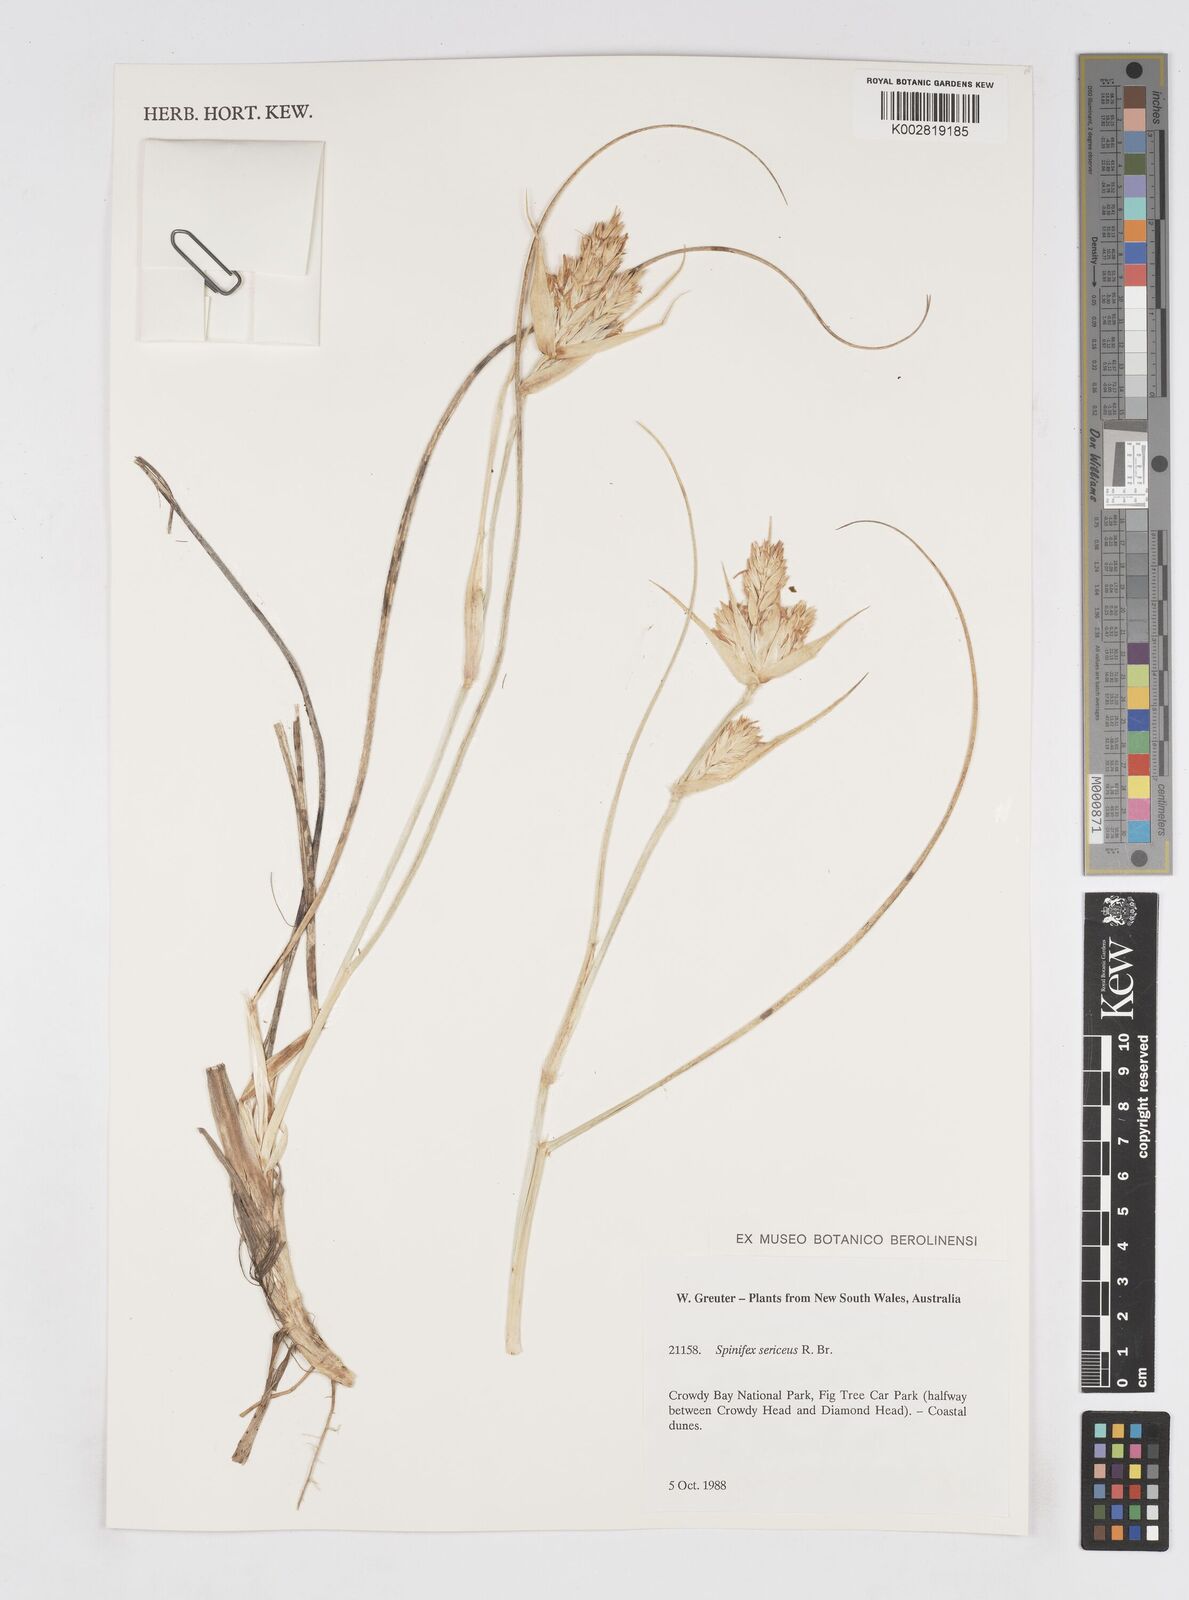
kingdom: Plantae
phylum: Tracheophyta
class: Liliopsida
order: Poales
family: Poaceae
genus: Spinifex
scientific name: Spinifex sericeus
